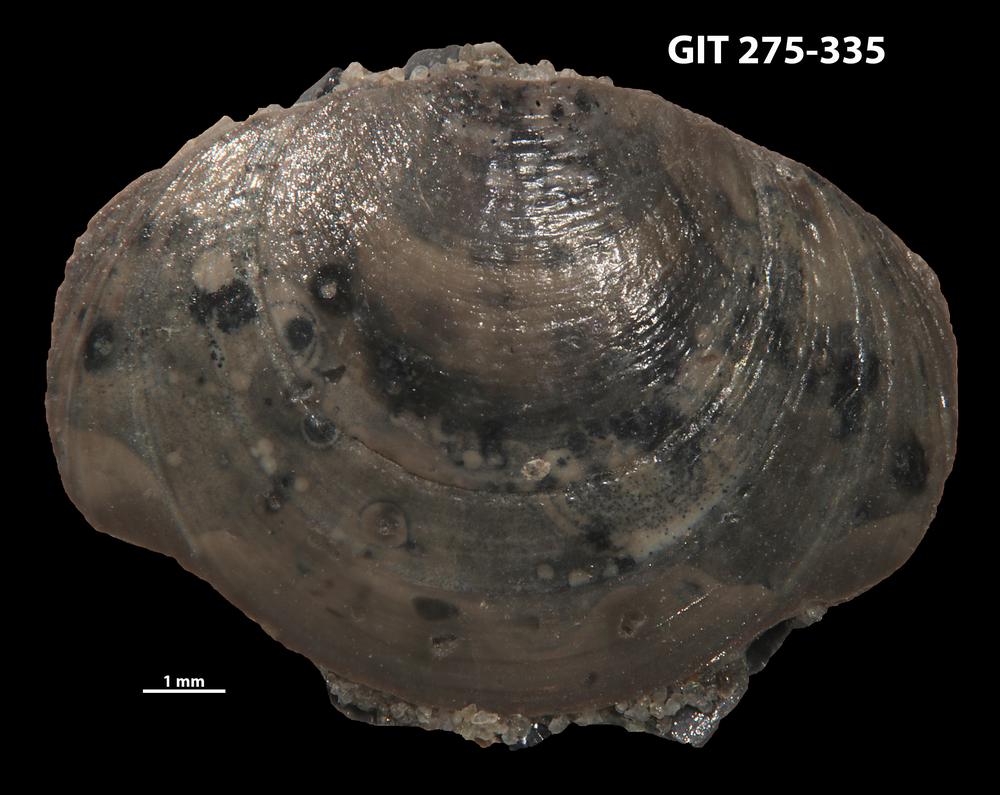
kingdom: Animalia
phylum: Brachiopoda
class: Lingulata
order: Lingulida
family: Obolidae
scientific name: Obolidae
